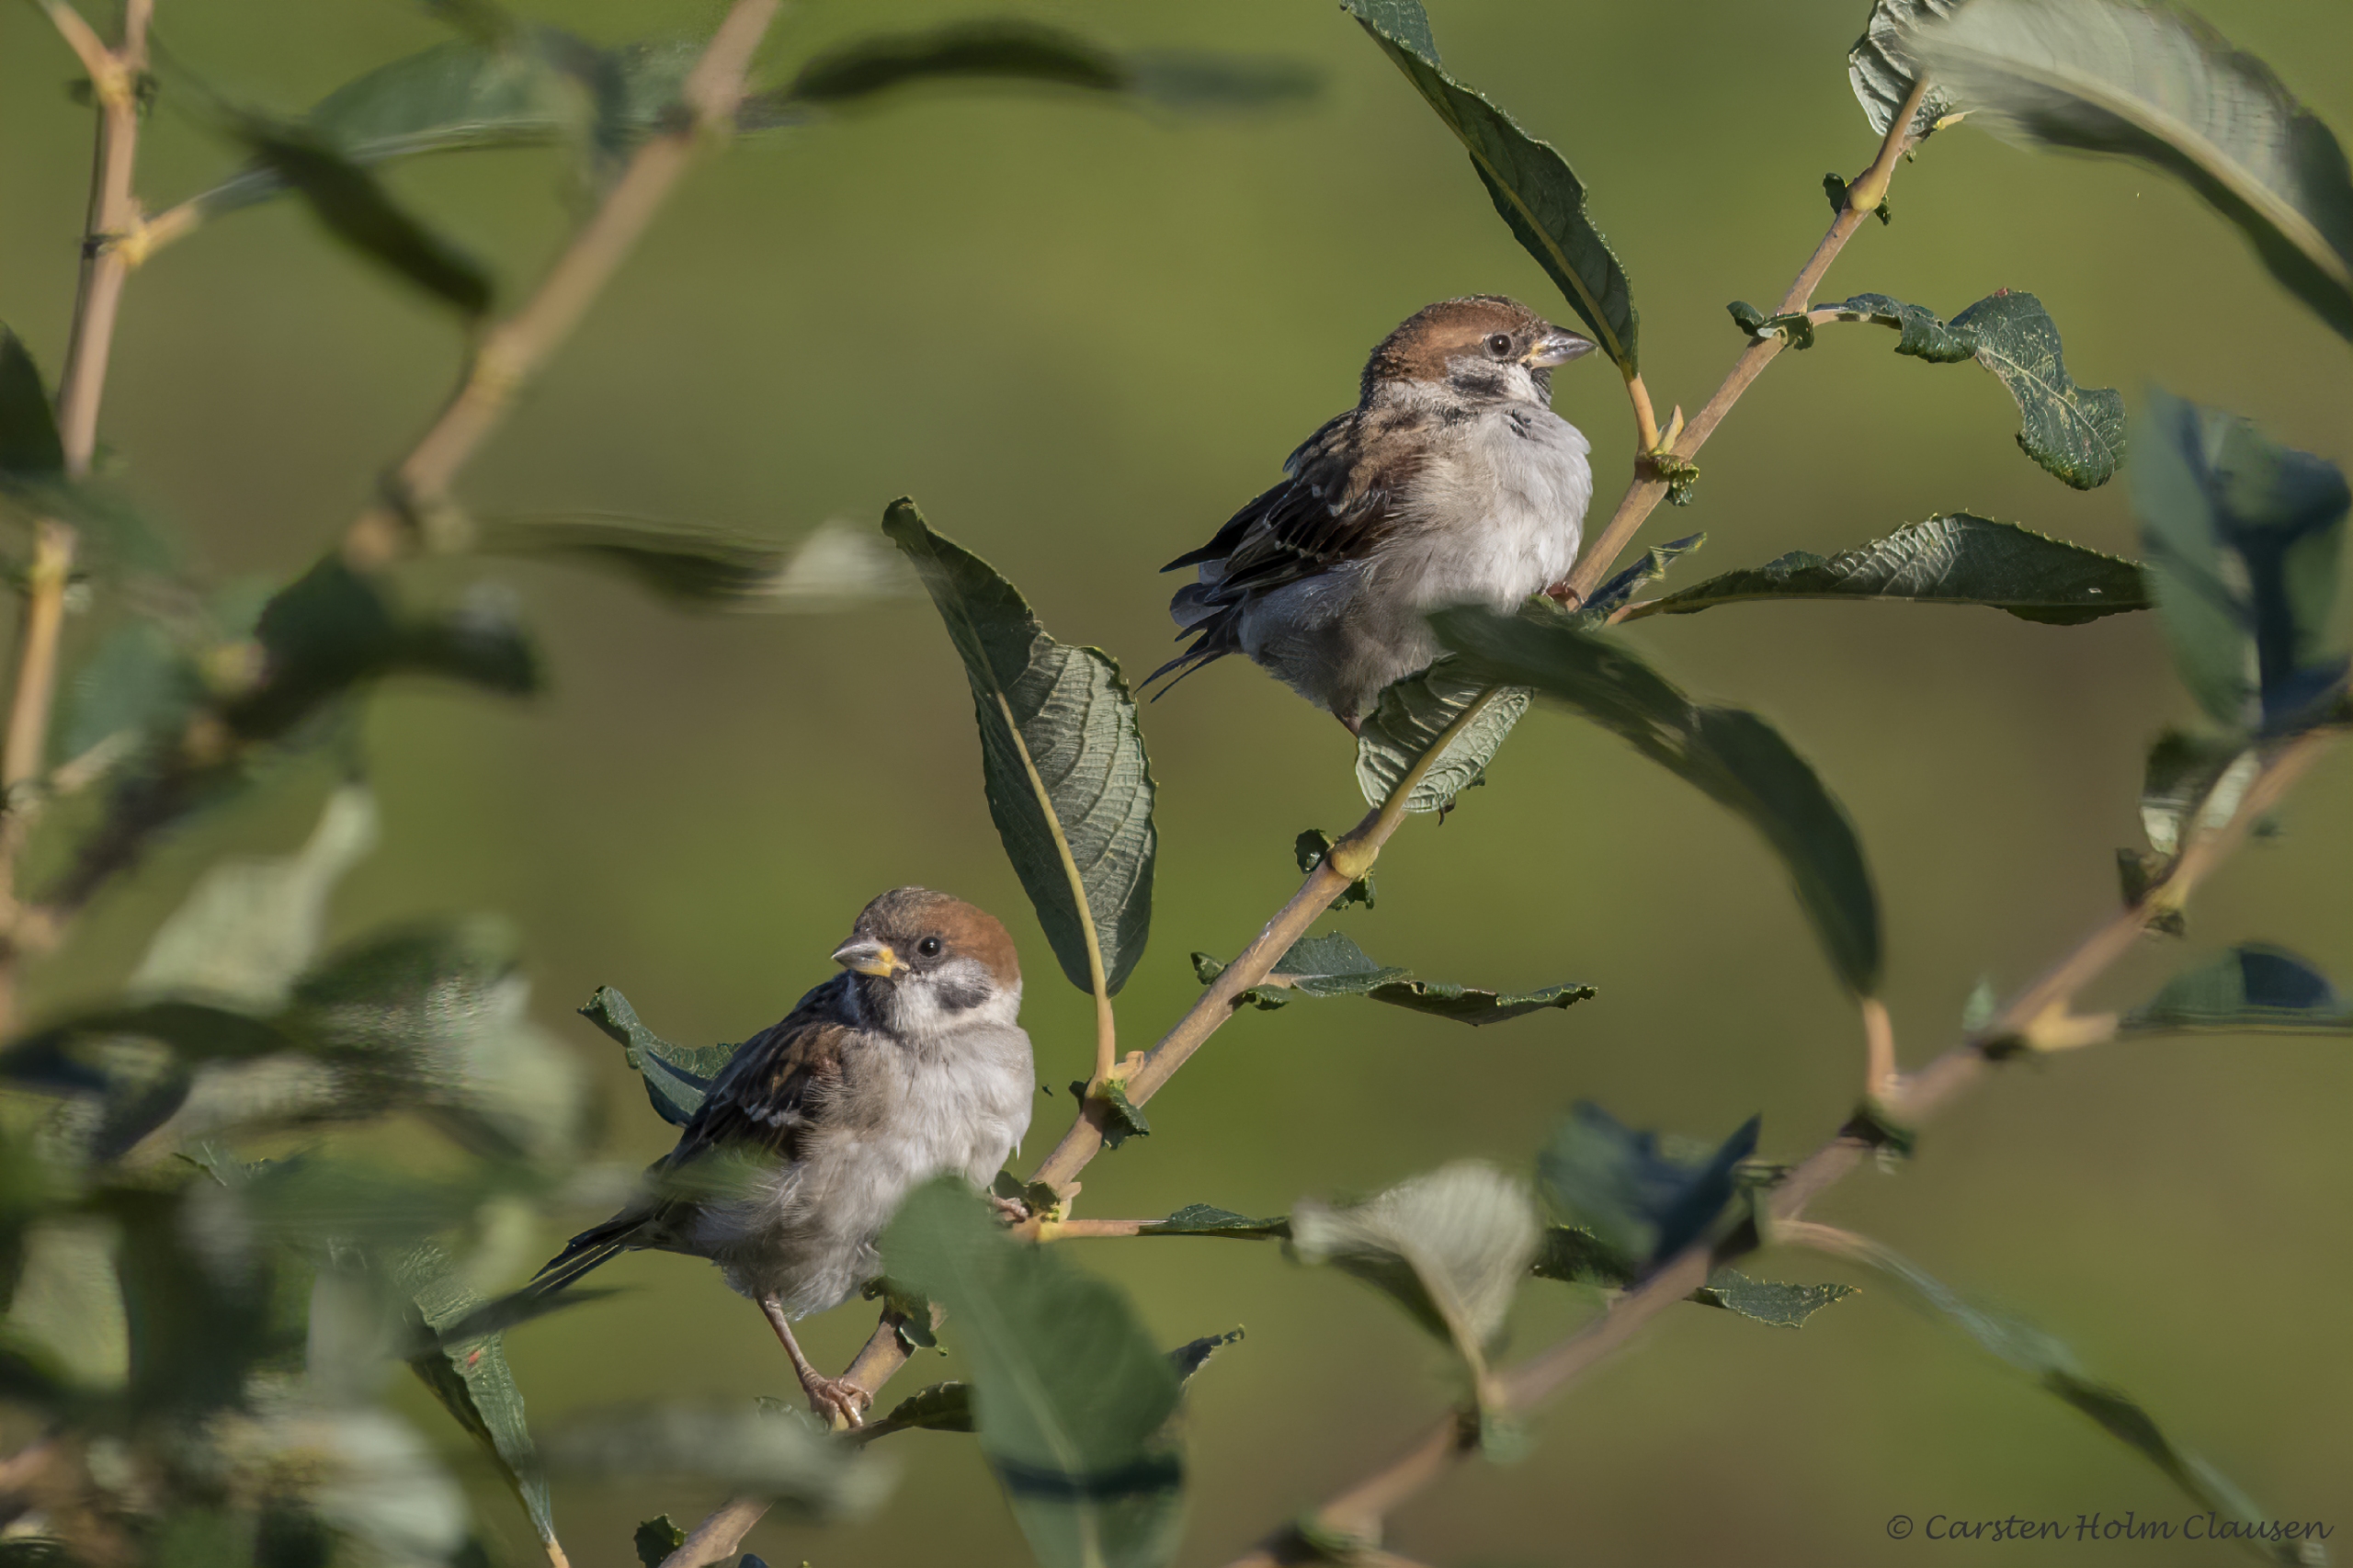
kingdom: Animalia
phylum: Chordata
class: Aves
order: Passeriformes
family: Passeridae
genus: Passer
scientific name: Passer montanus
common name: Skovspurv
